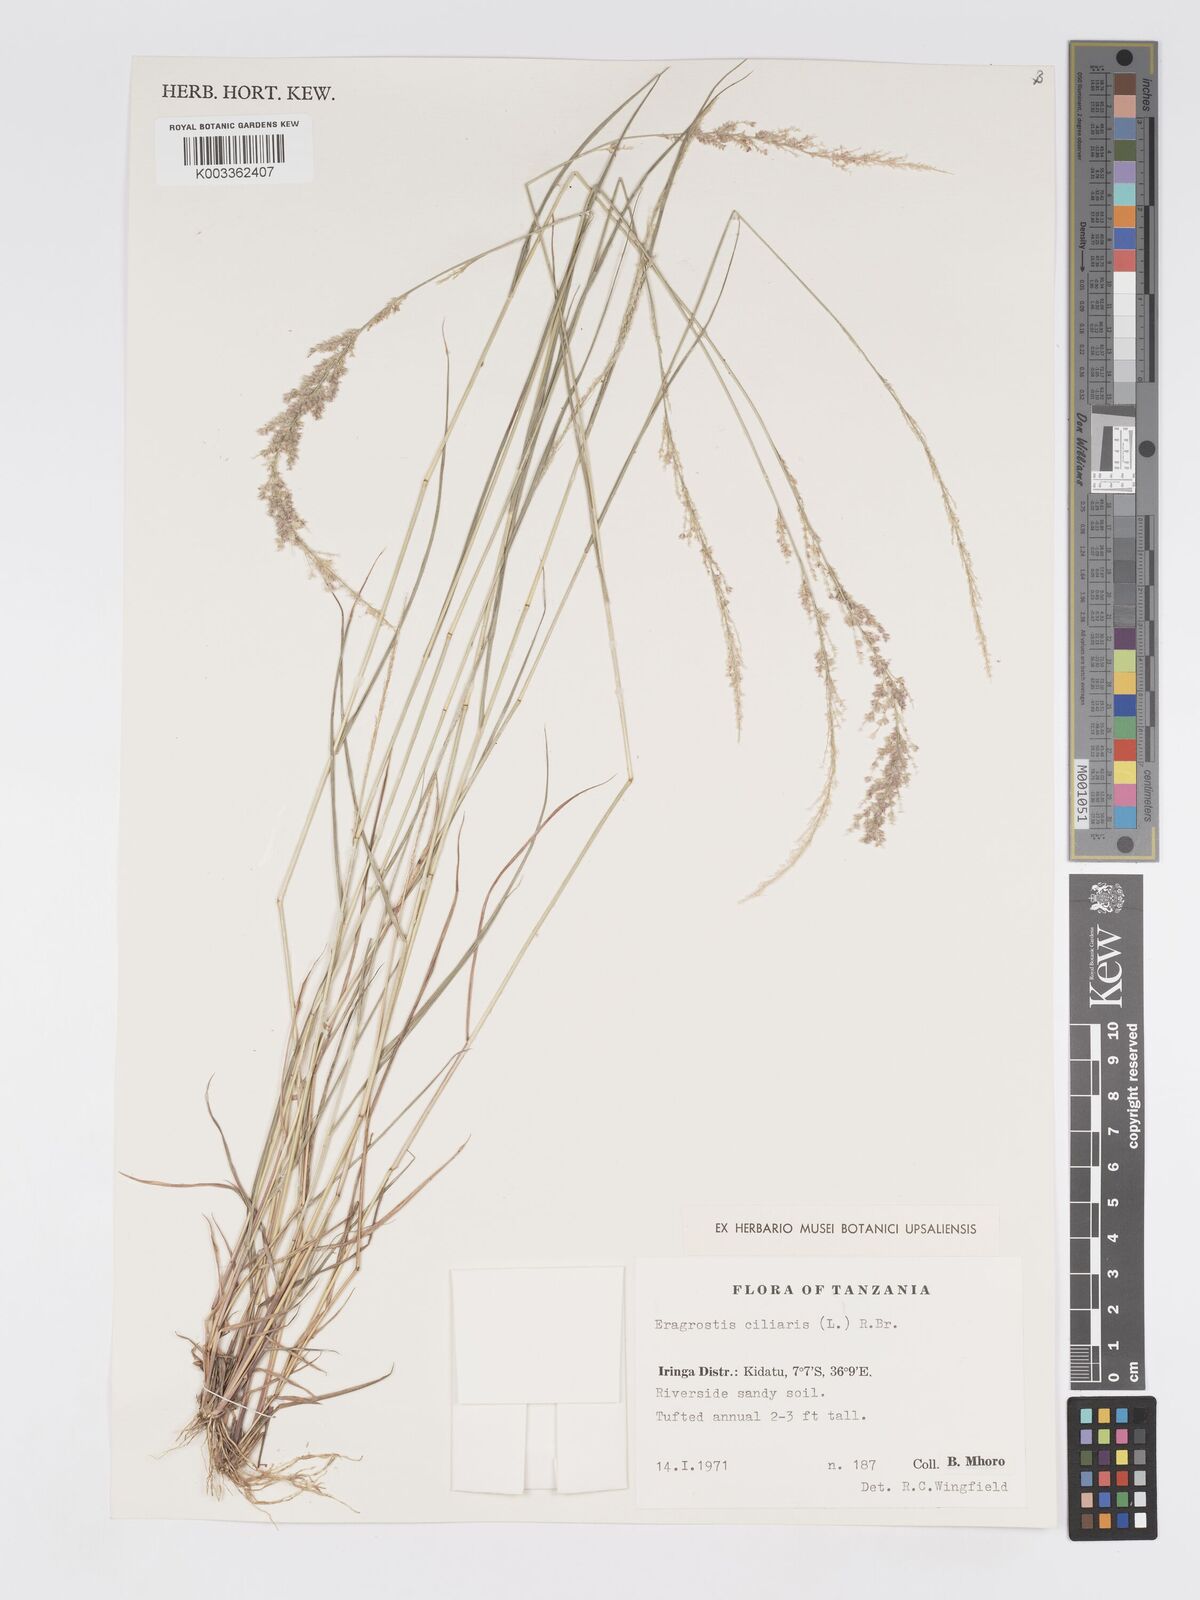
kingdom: Plantae
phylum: Tracheophyta
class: Liliopsida
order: Poales
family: Poaceae
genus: Eragrostis
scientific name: Eragrostis ciliaris
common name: Gophertail lovegrass
